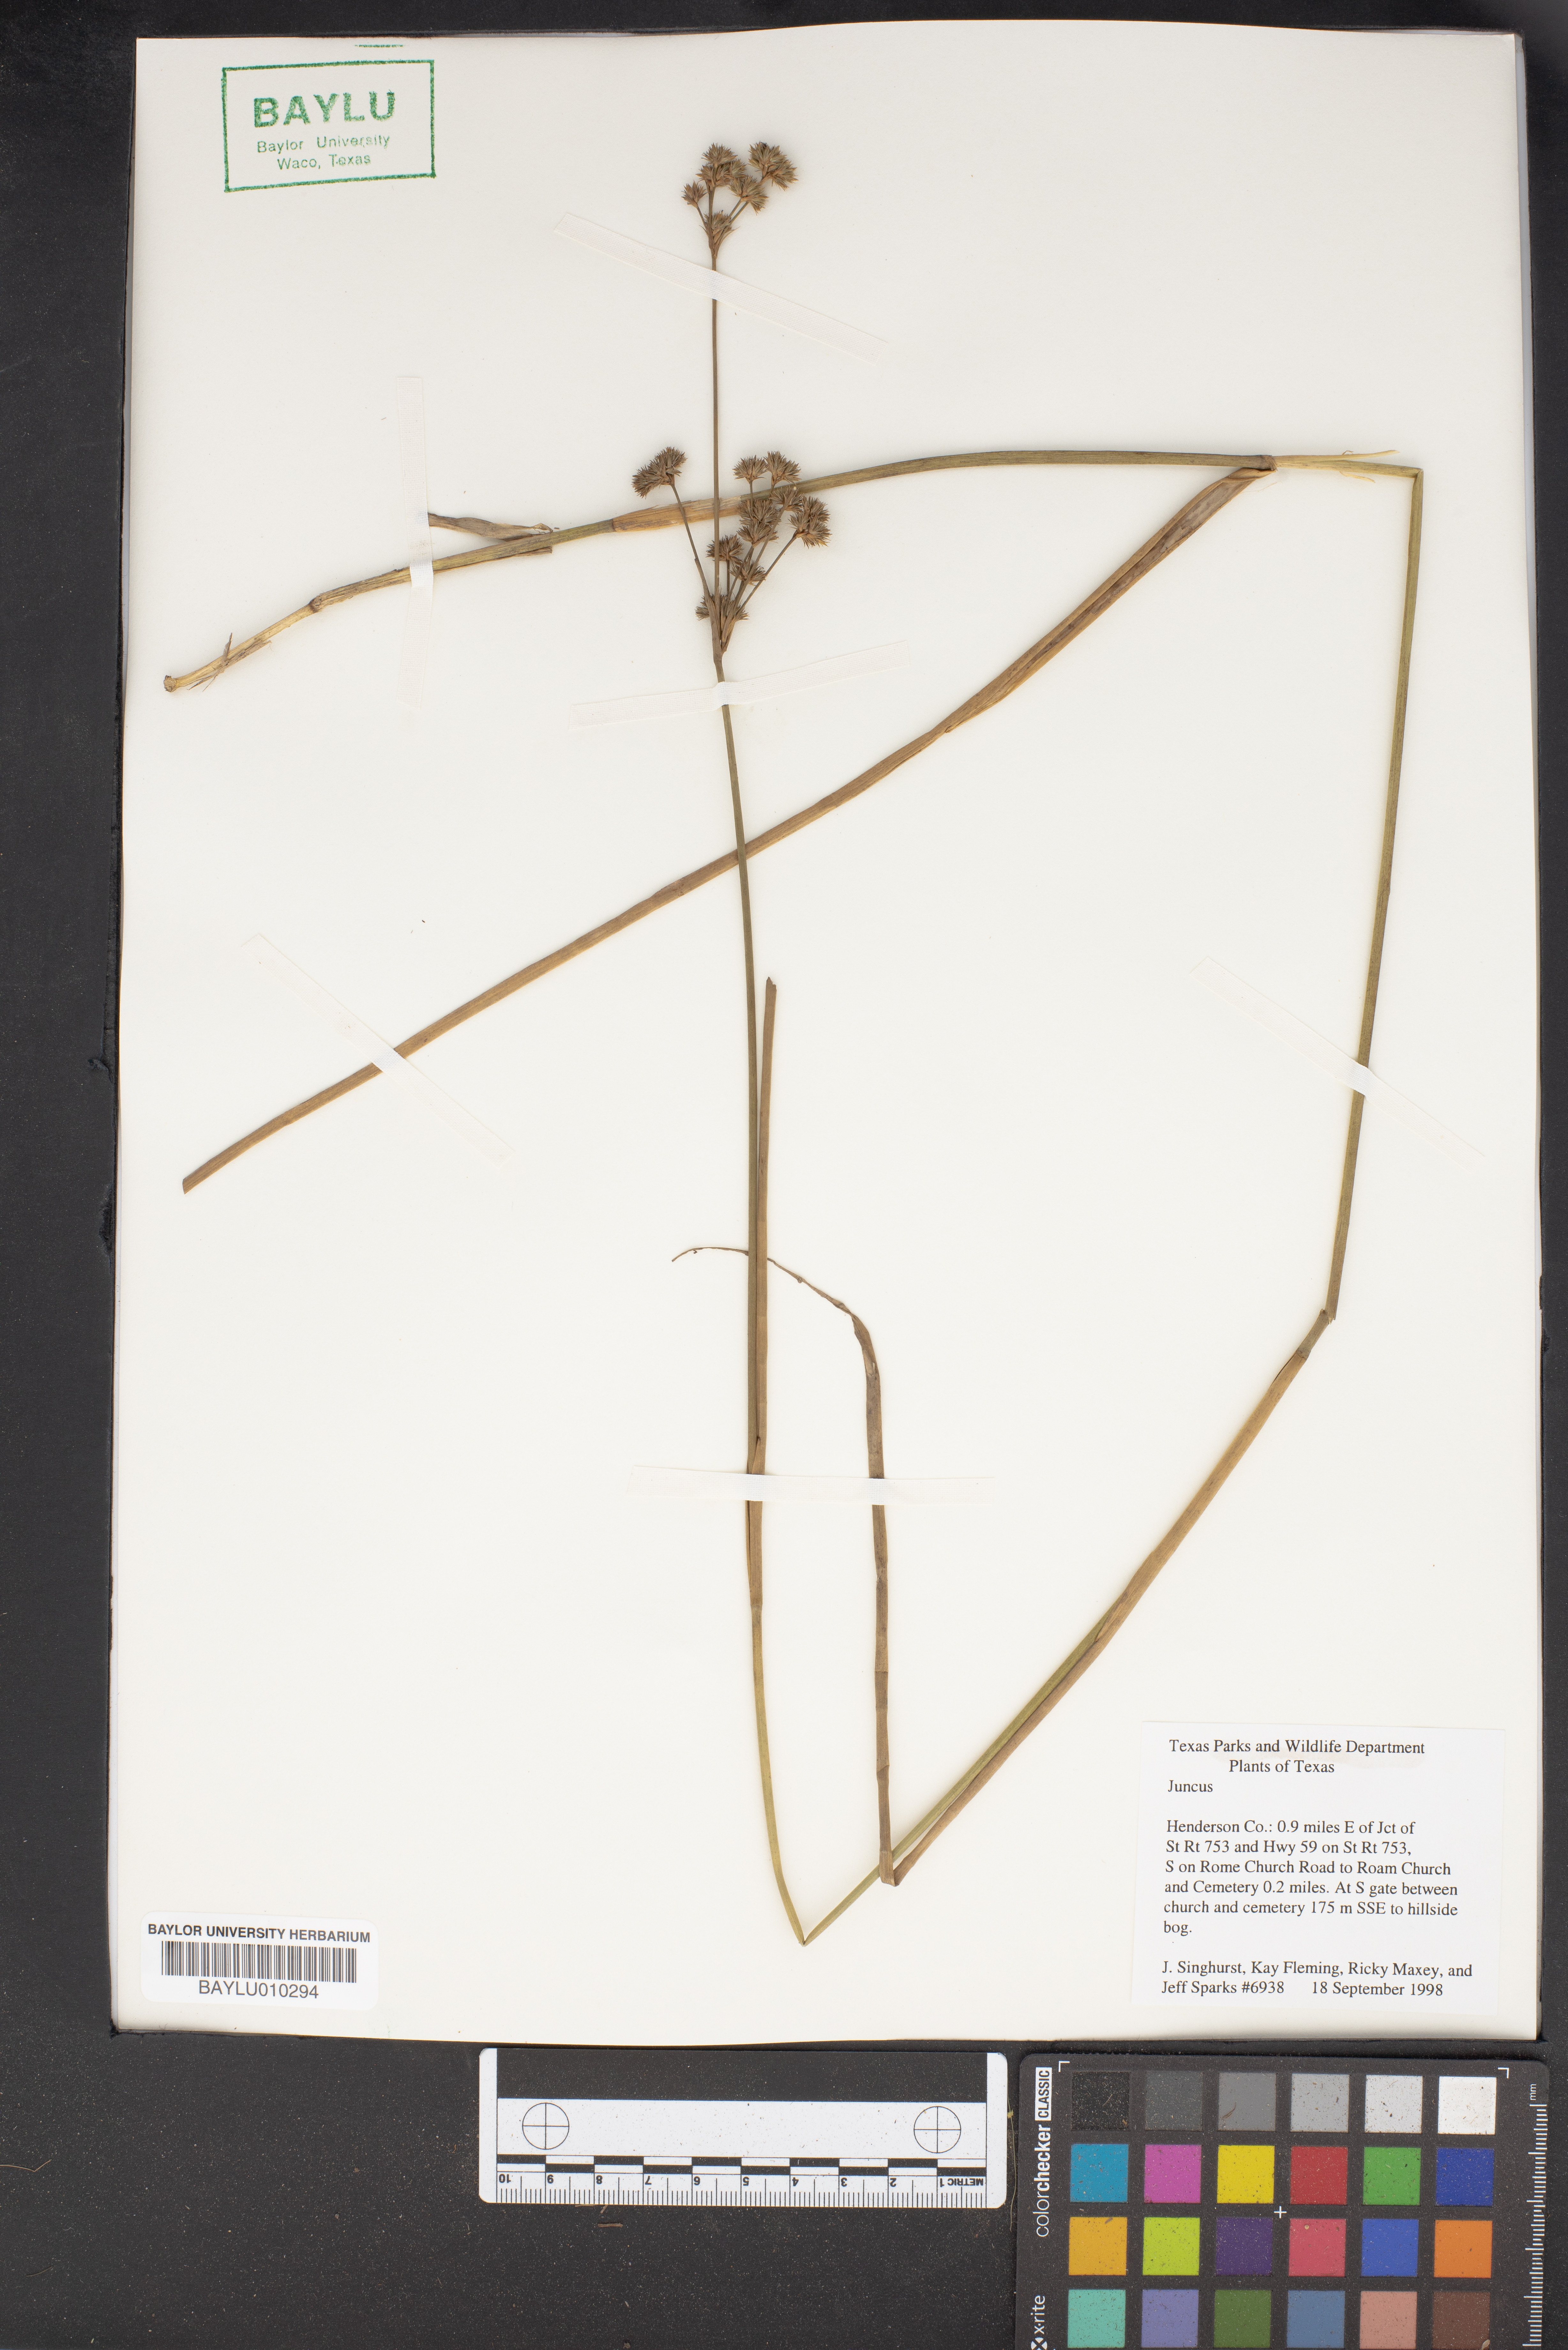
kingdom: Plantae
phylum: Tracheophyta
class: Liliopsida
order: Poales
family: Juncaceae
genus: Juncus
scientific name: Juncus
